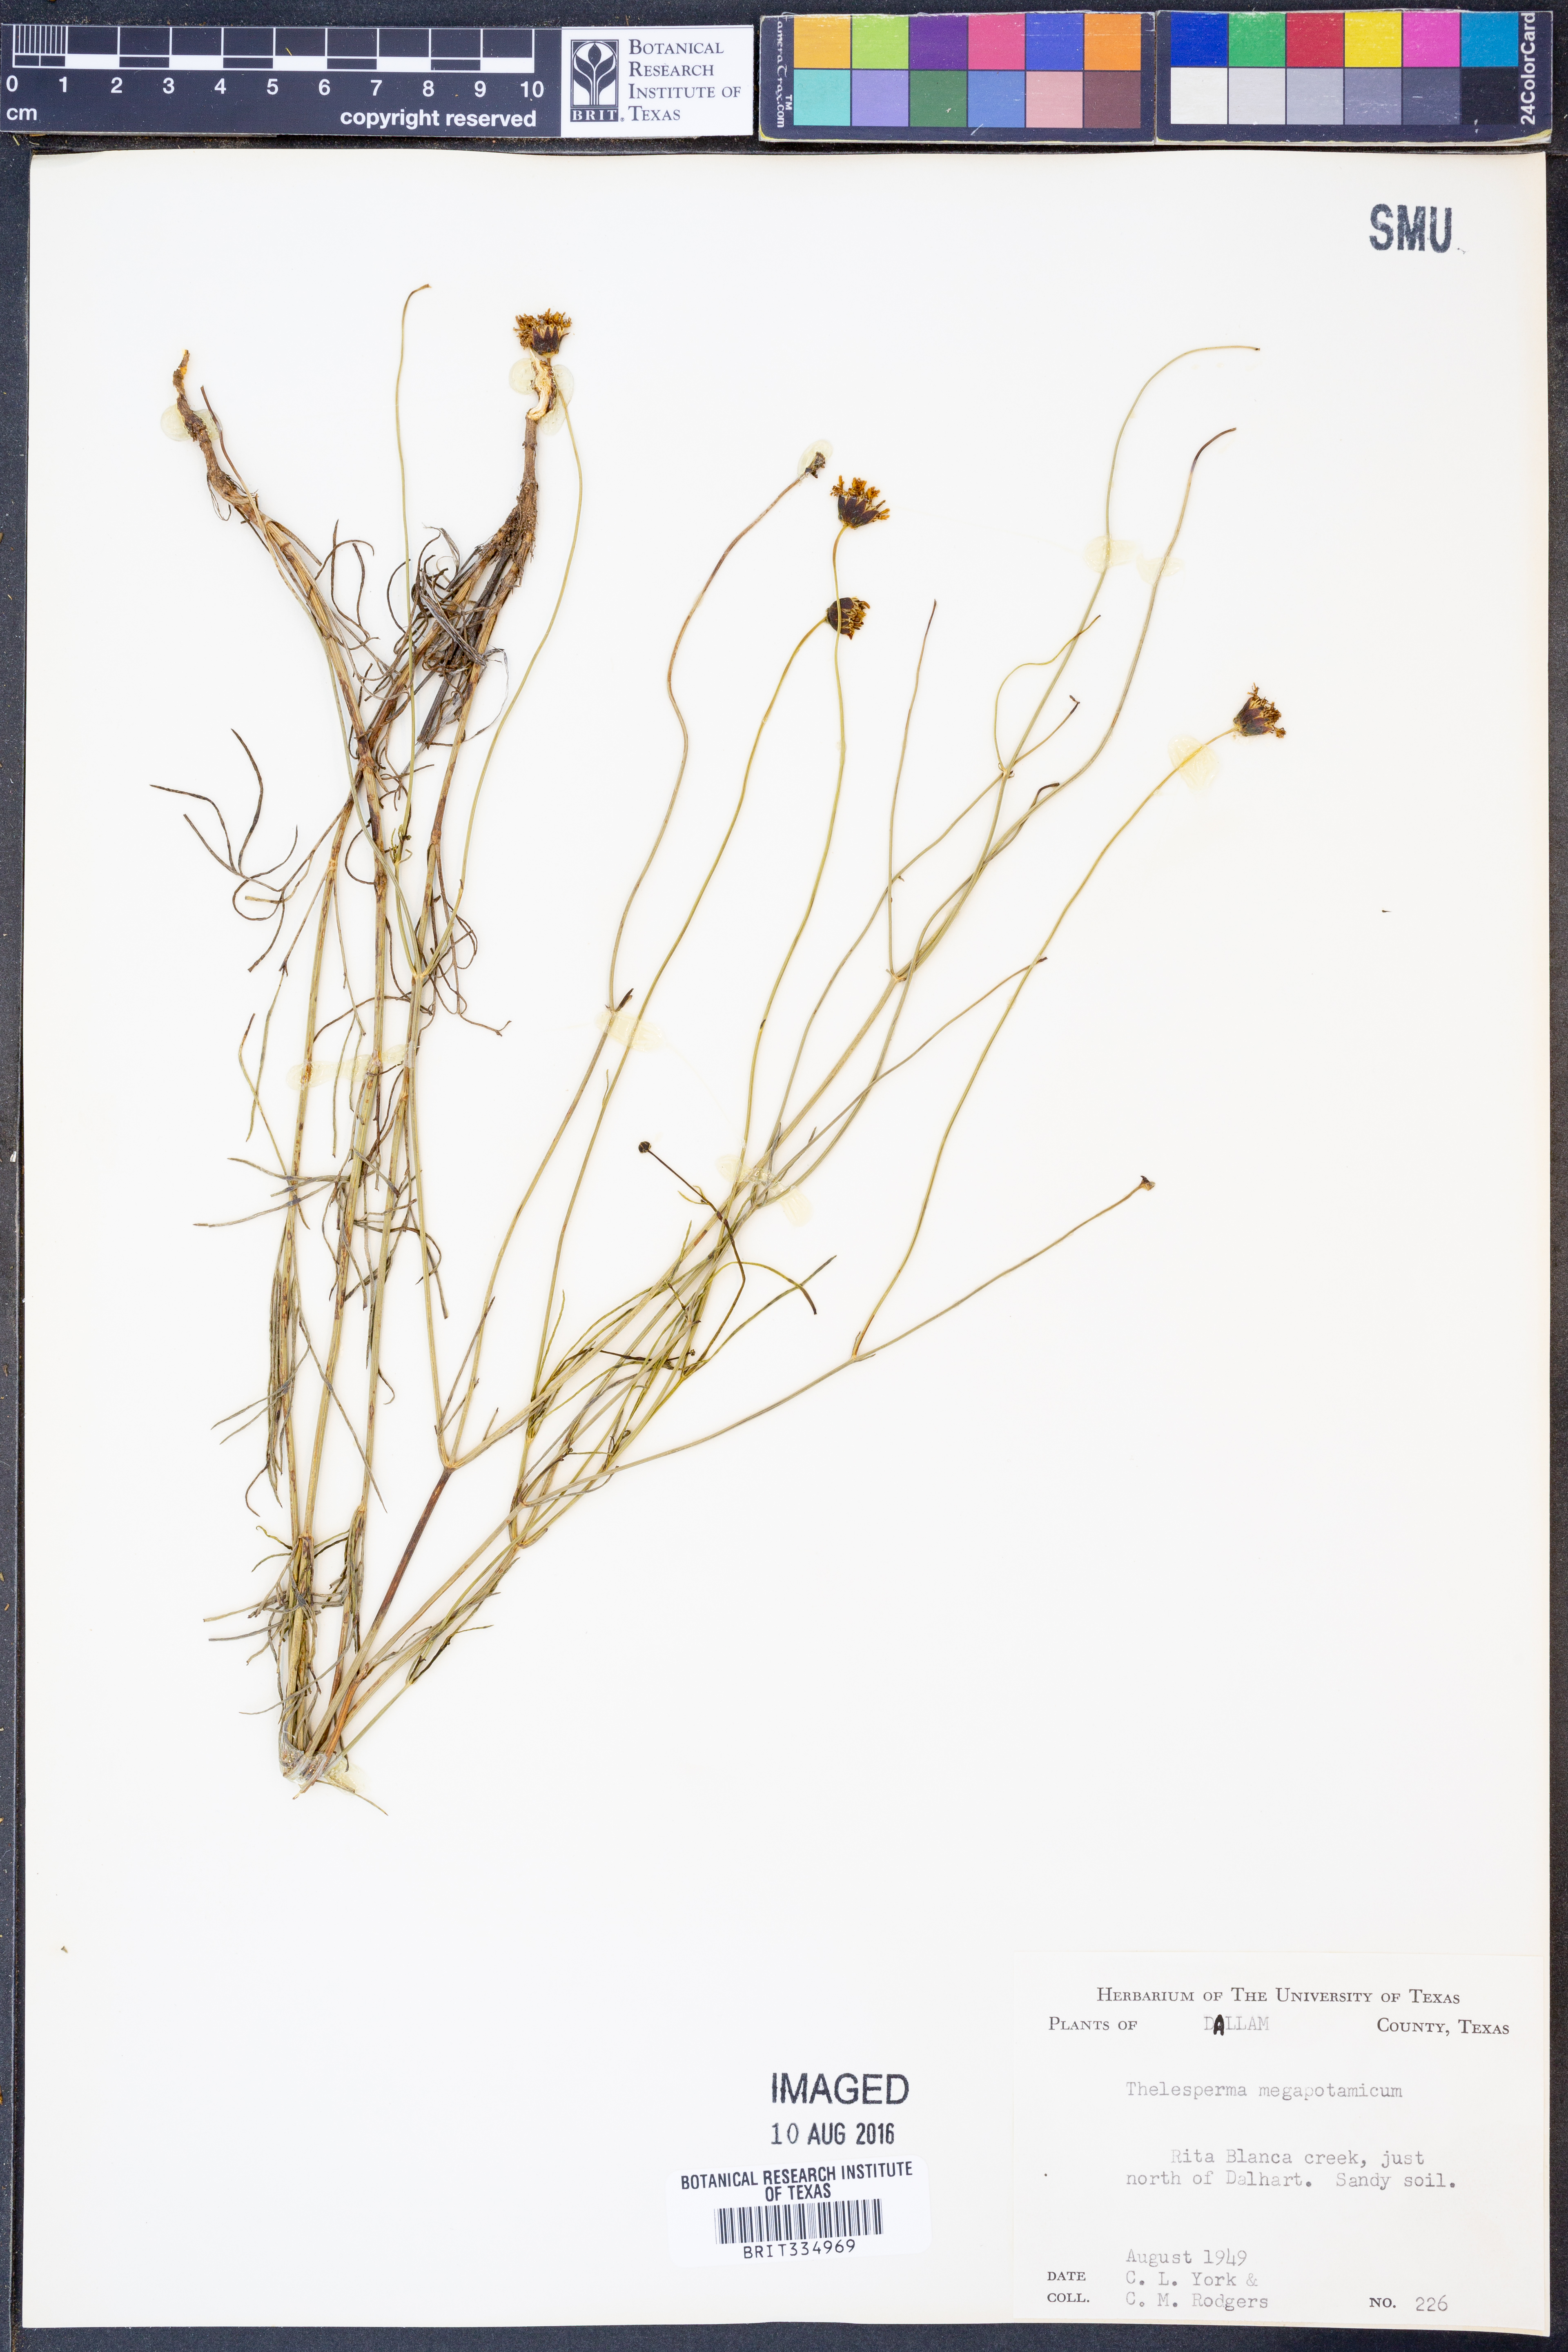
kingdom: Plantae
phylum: Tracheophyta
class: Magnoliopsida
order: Asterales
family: Asteraceae
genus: Thelesperma
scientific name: Thelesperma megapotamicum
